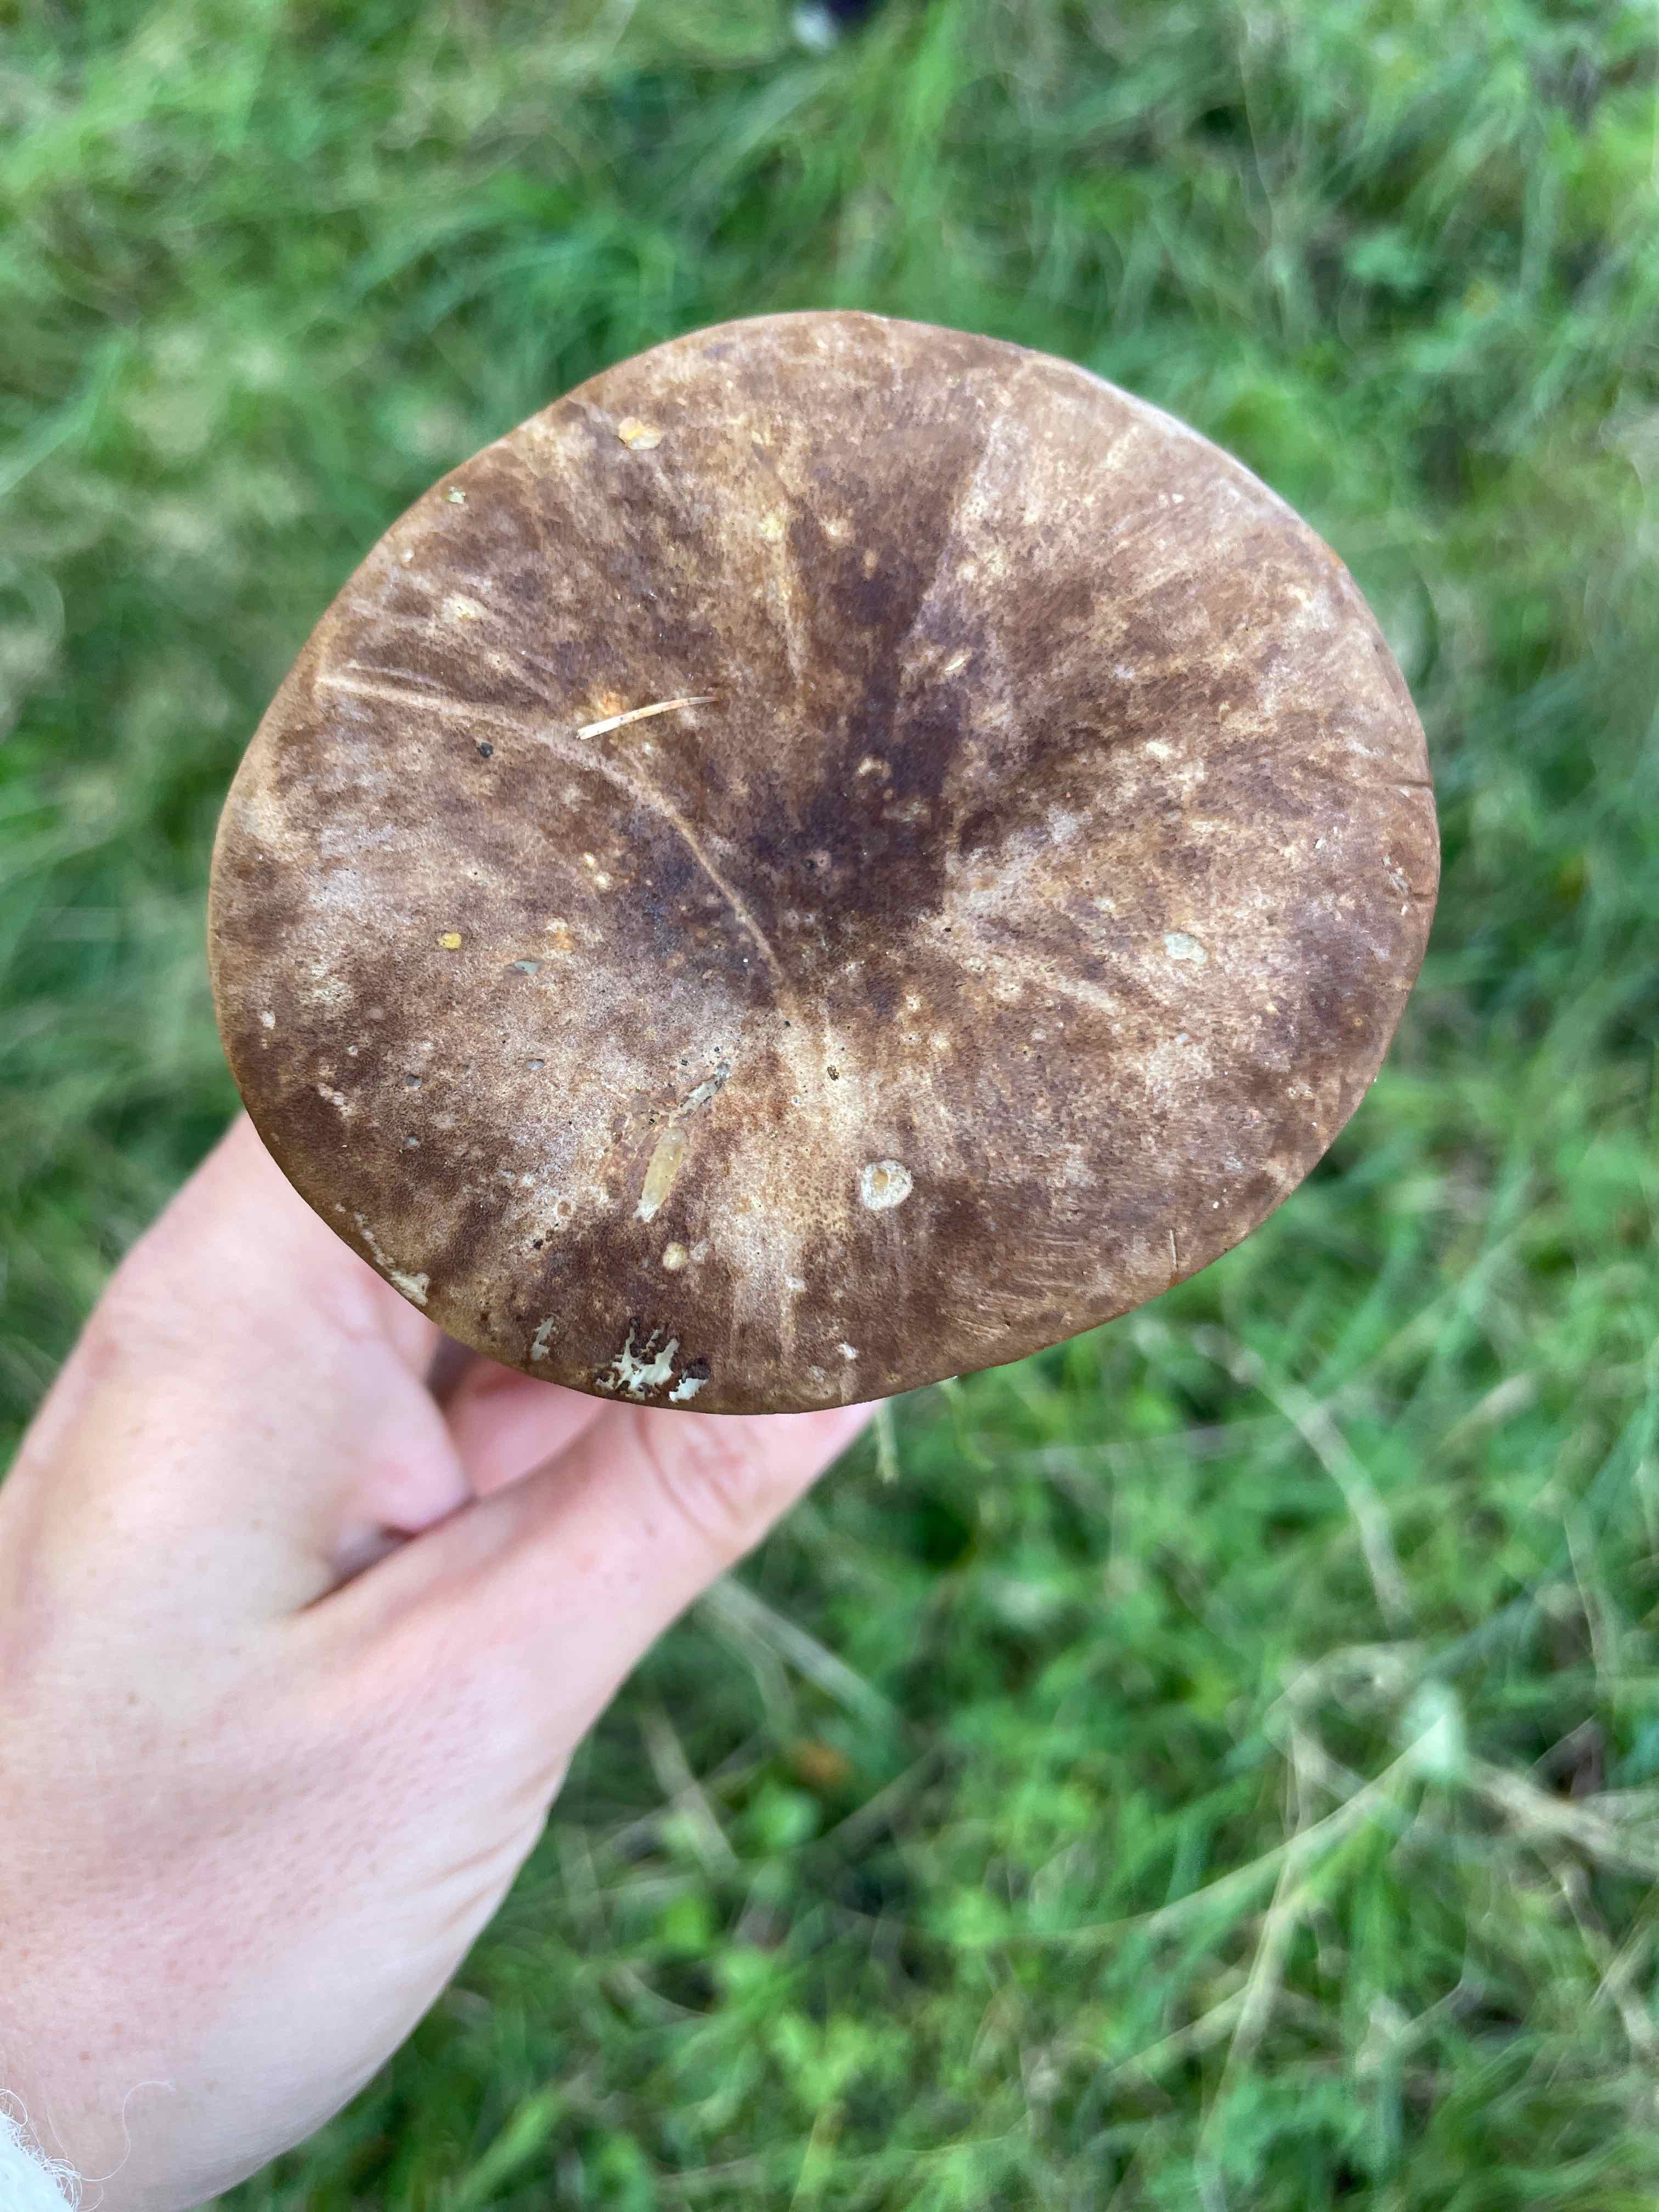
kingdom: Fungi
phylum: Basidiomycota
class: Agaricomycetes
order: Boletales
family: Tapinellaceae
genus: Tapinella
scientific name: Tapinella atrotomentosa
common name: sortfiltet viftesvamp
